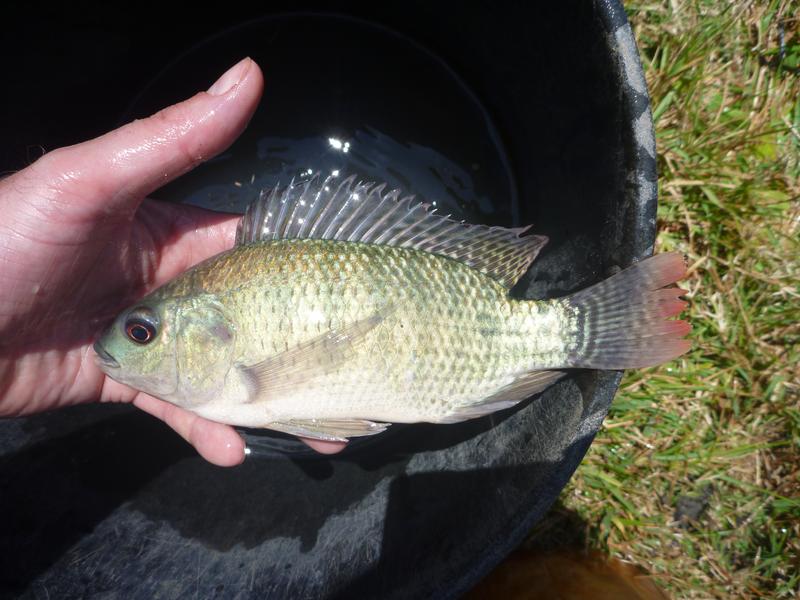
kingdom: Animalia
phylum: Chordata
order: Perciformes
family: Cichlidae
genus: Oreochromis
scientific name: Oreochromis niloticus
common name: Nile tilapia
